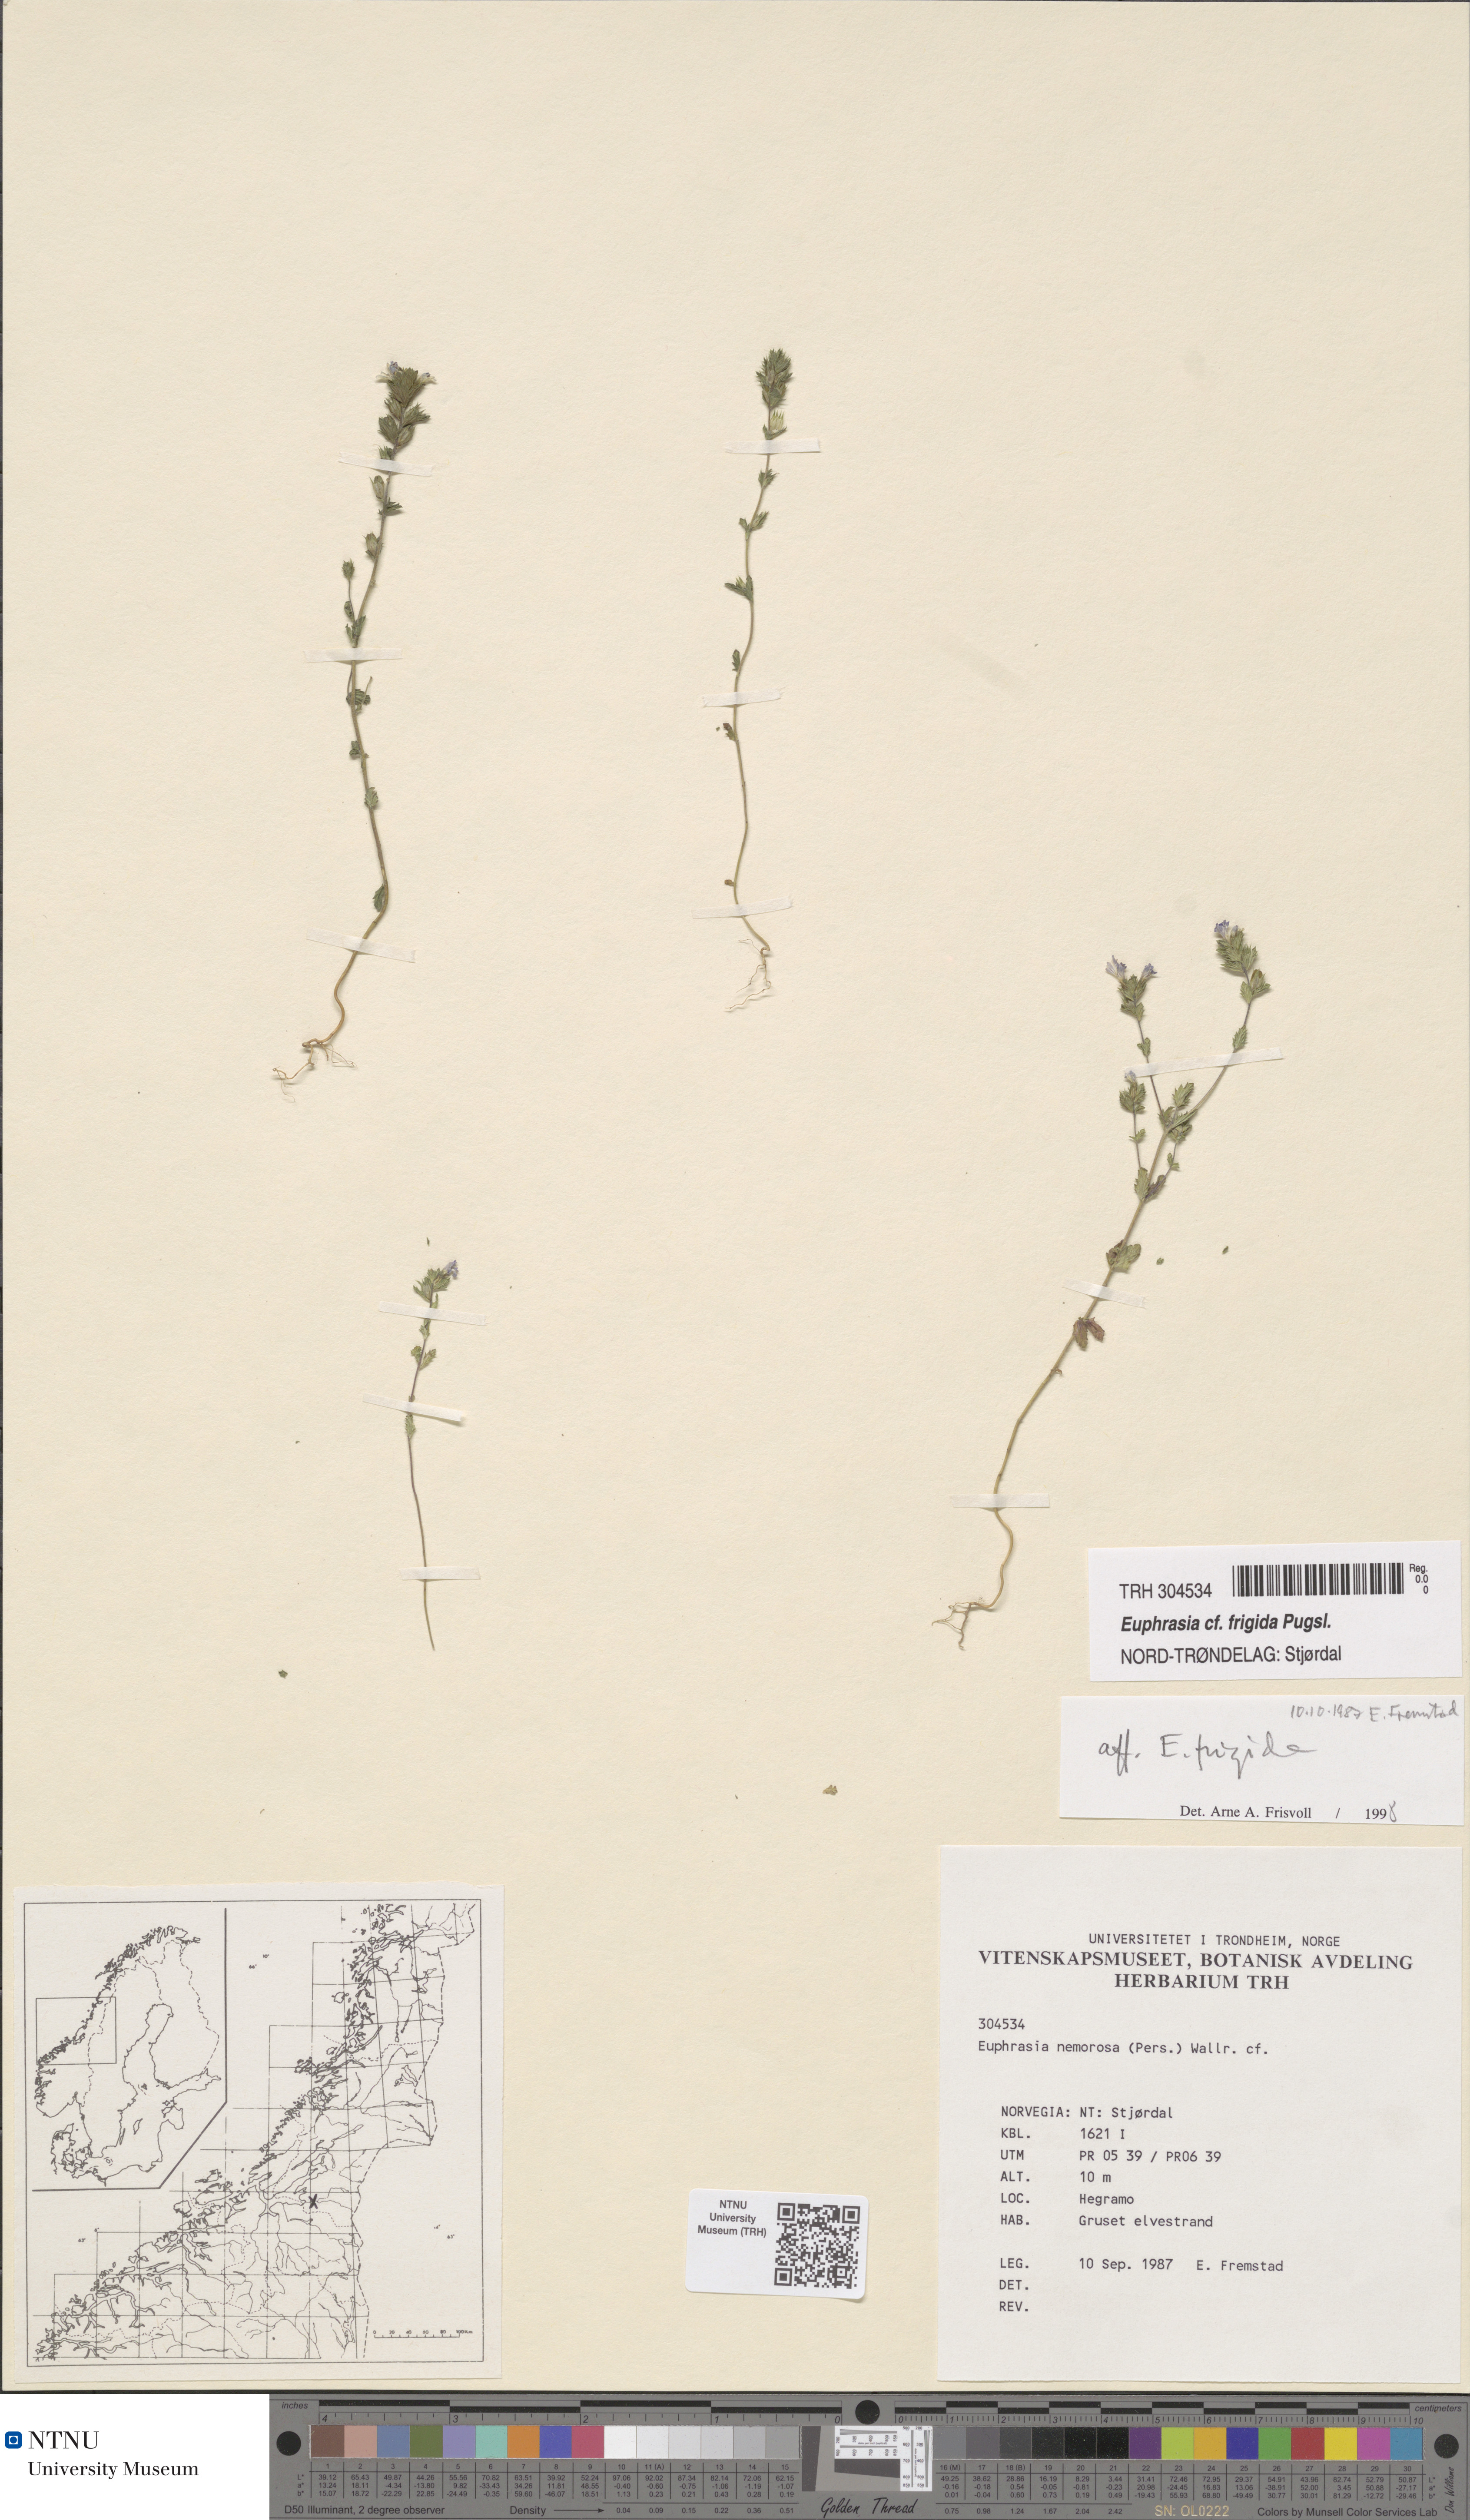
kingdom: Plantae
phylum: Tracheophyta
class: Magnoliopsida
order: Lamiales
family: Orobanchaceae
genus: Euphrasia
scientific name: Euphrasia wettsteinii
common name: Wettstein's eyebright
